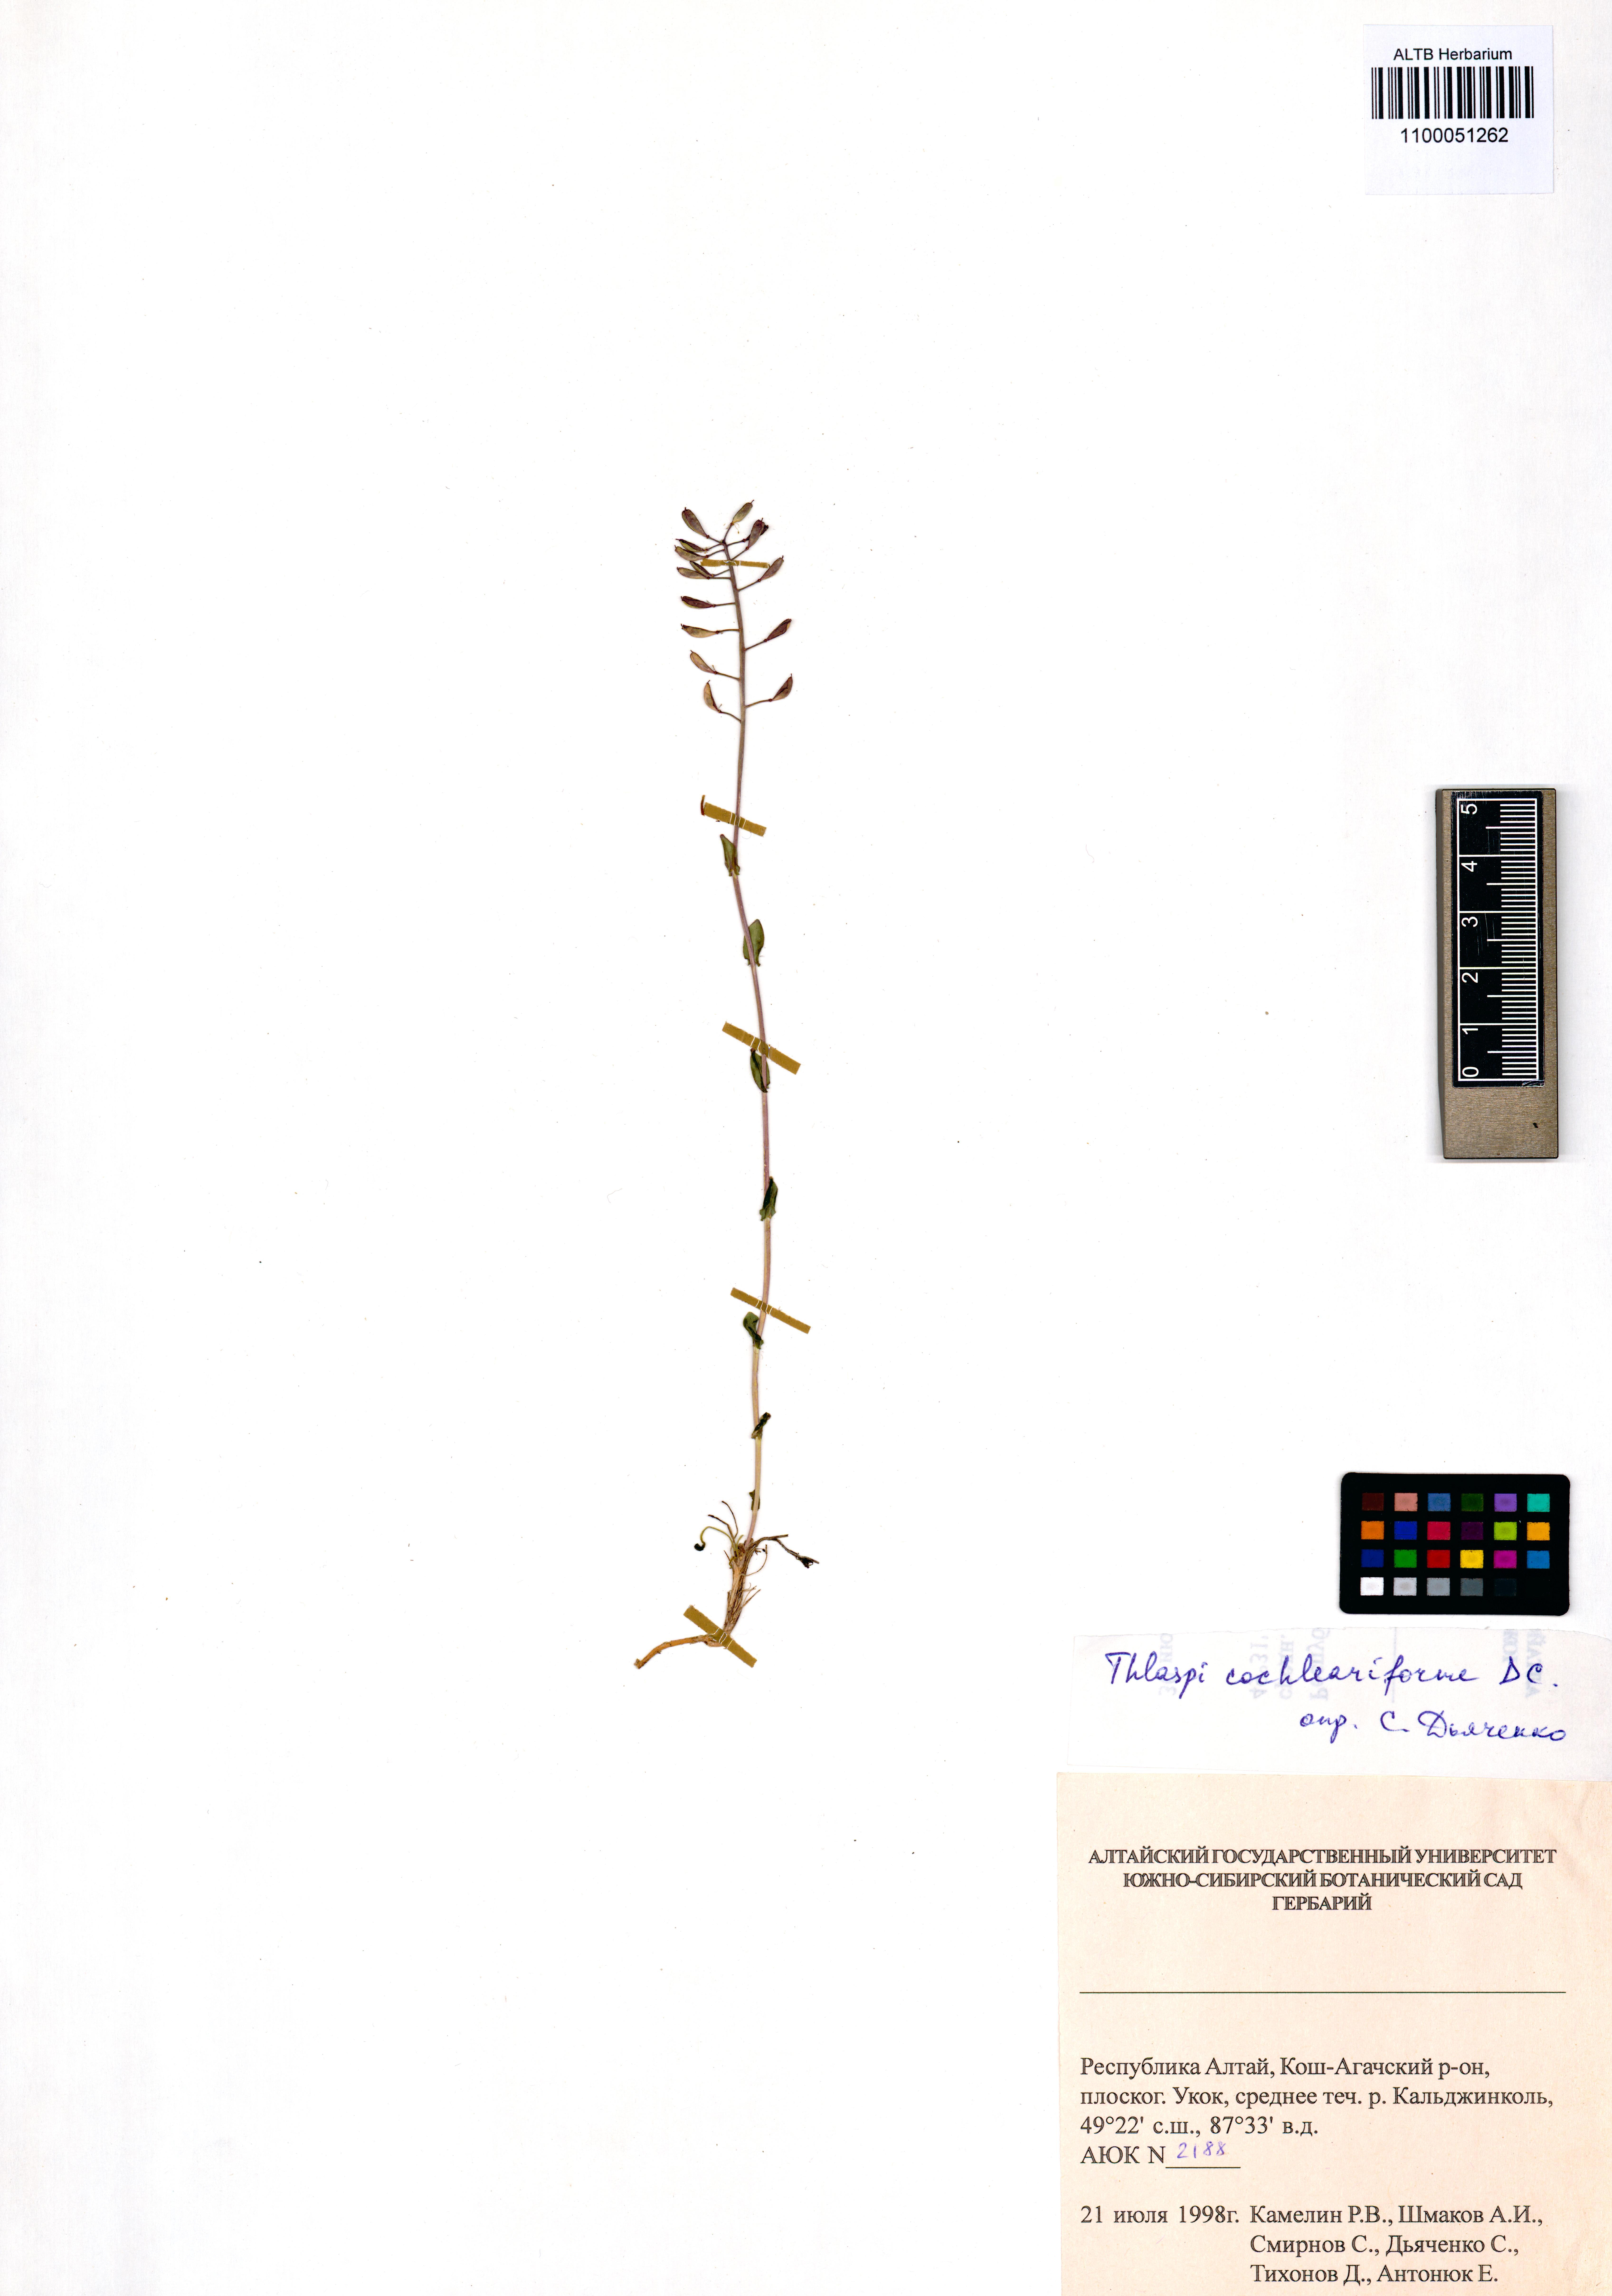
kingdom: Plantae
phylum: Tracheophyta
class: Magnoliopsida
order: Brassicales
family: Brassicaceae
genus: Noccaea
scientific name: Noccaea thlaspidioides
